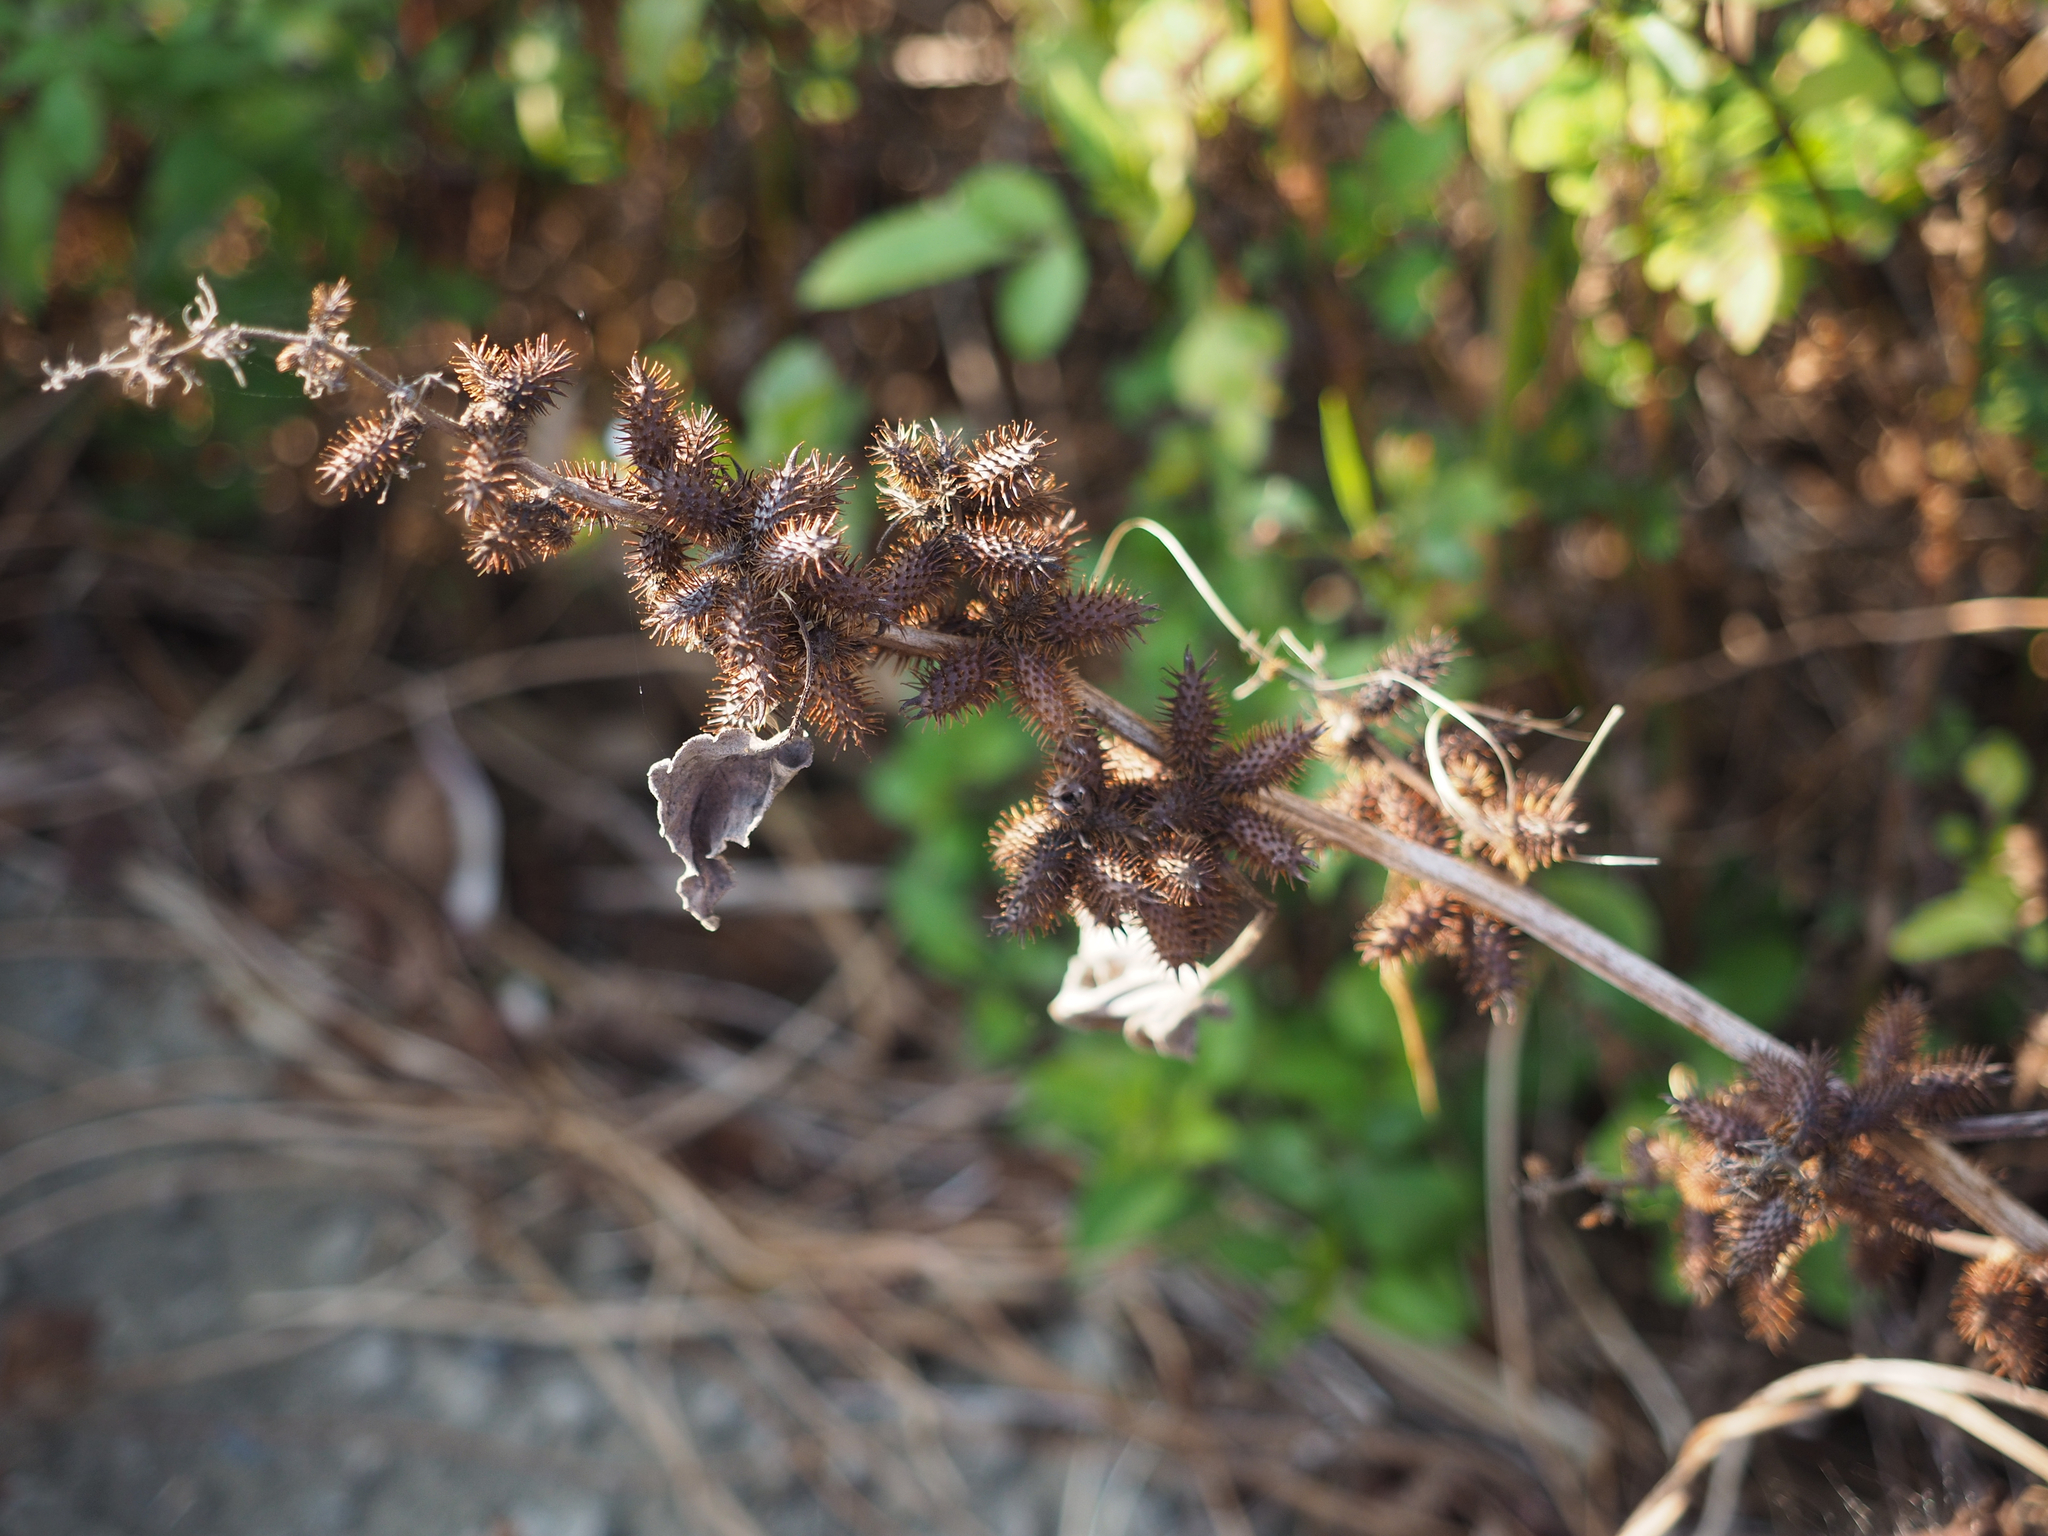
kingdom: Plantae
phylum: Tracheophyta
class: Magnoliopsida
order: Asterales
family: Asteraceae
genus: Xanthium
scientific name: Xanthium strumarium
